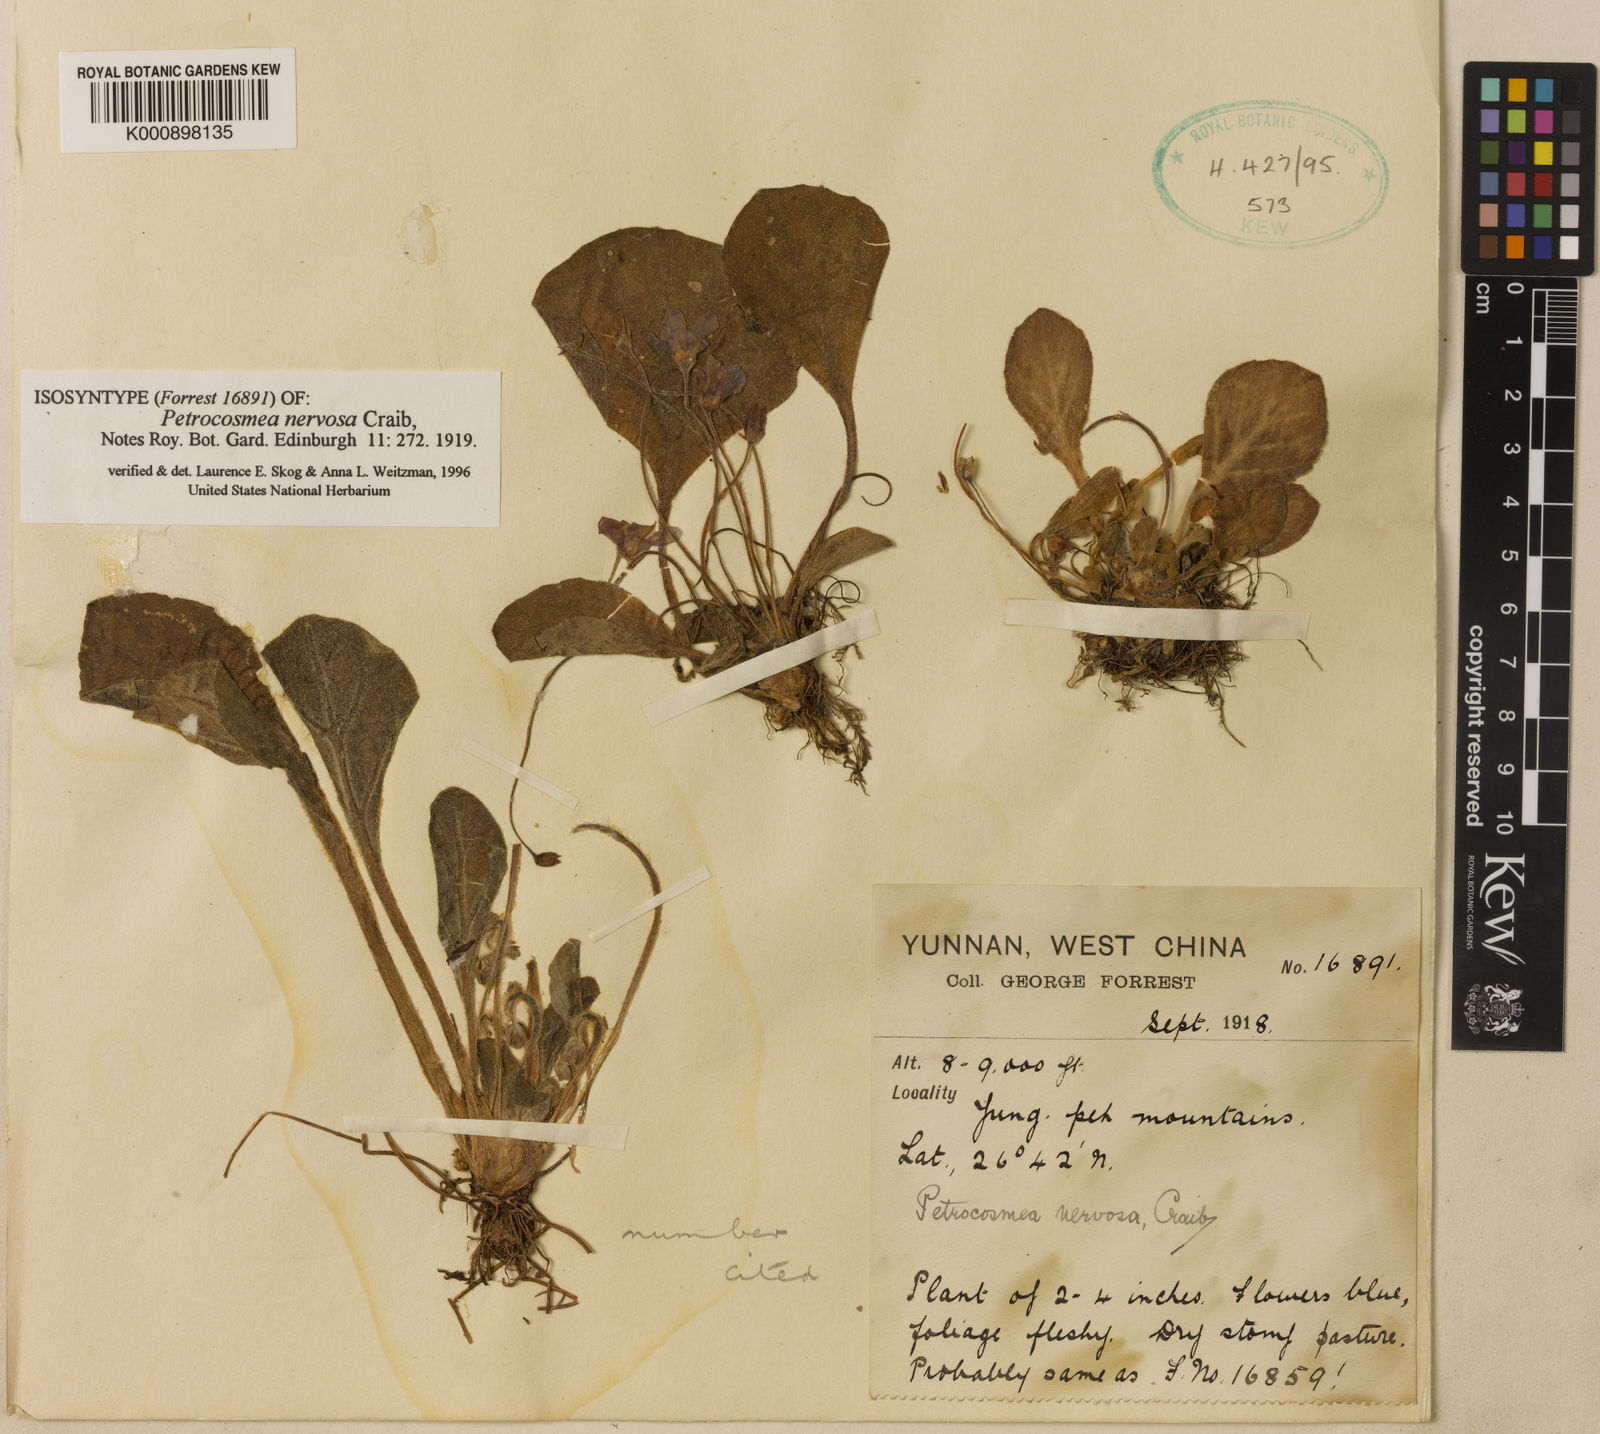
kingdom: Plantae
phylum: Tracheophyta
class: Magnoliopsida
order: Lamiales
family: Gesneriaceae
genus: Petrocosmea
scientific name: Petrocosmea nervosa
